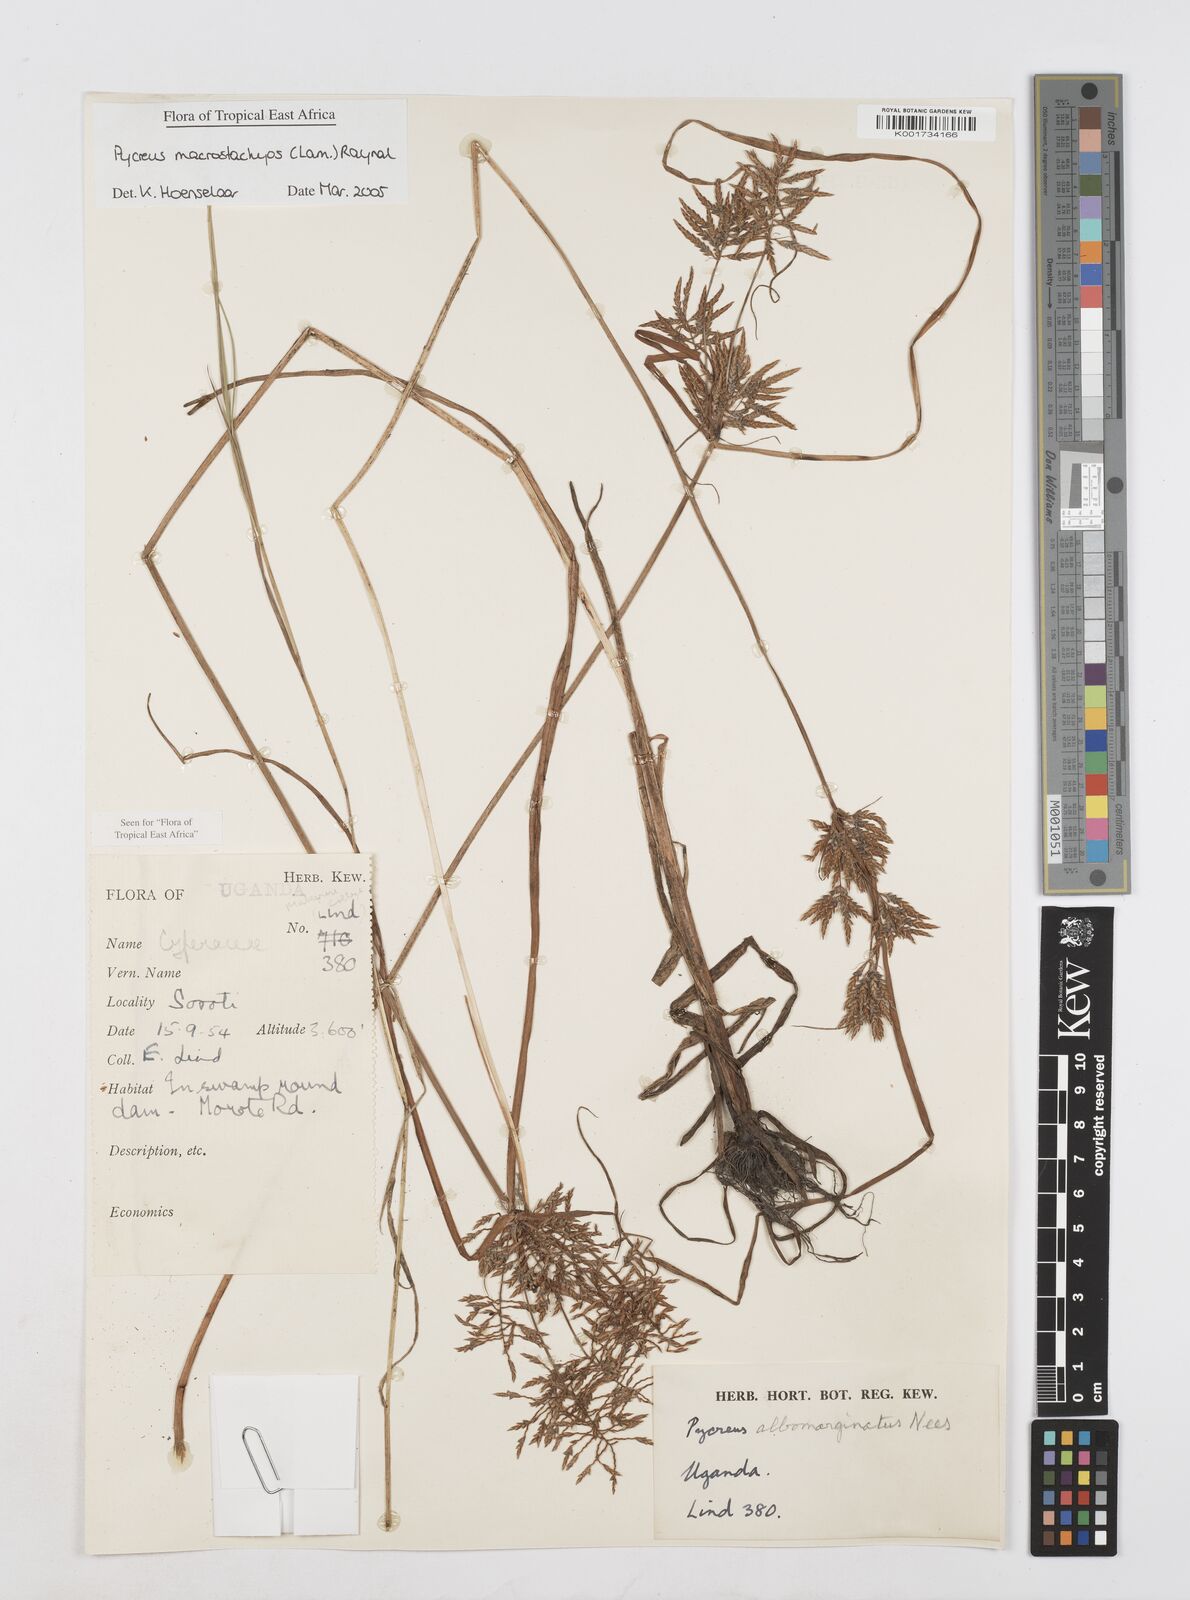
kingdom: Plantae
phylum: Tracheophyta
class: Liliopsida
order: Poales
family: Cyperaceae
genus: Cyperus
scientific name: Cyperus macrostachyos
